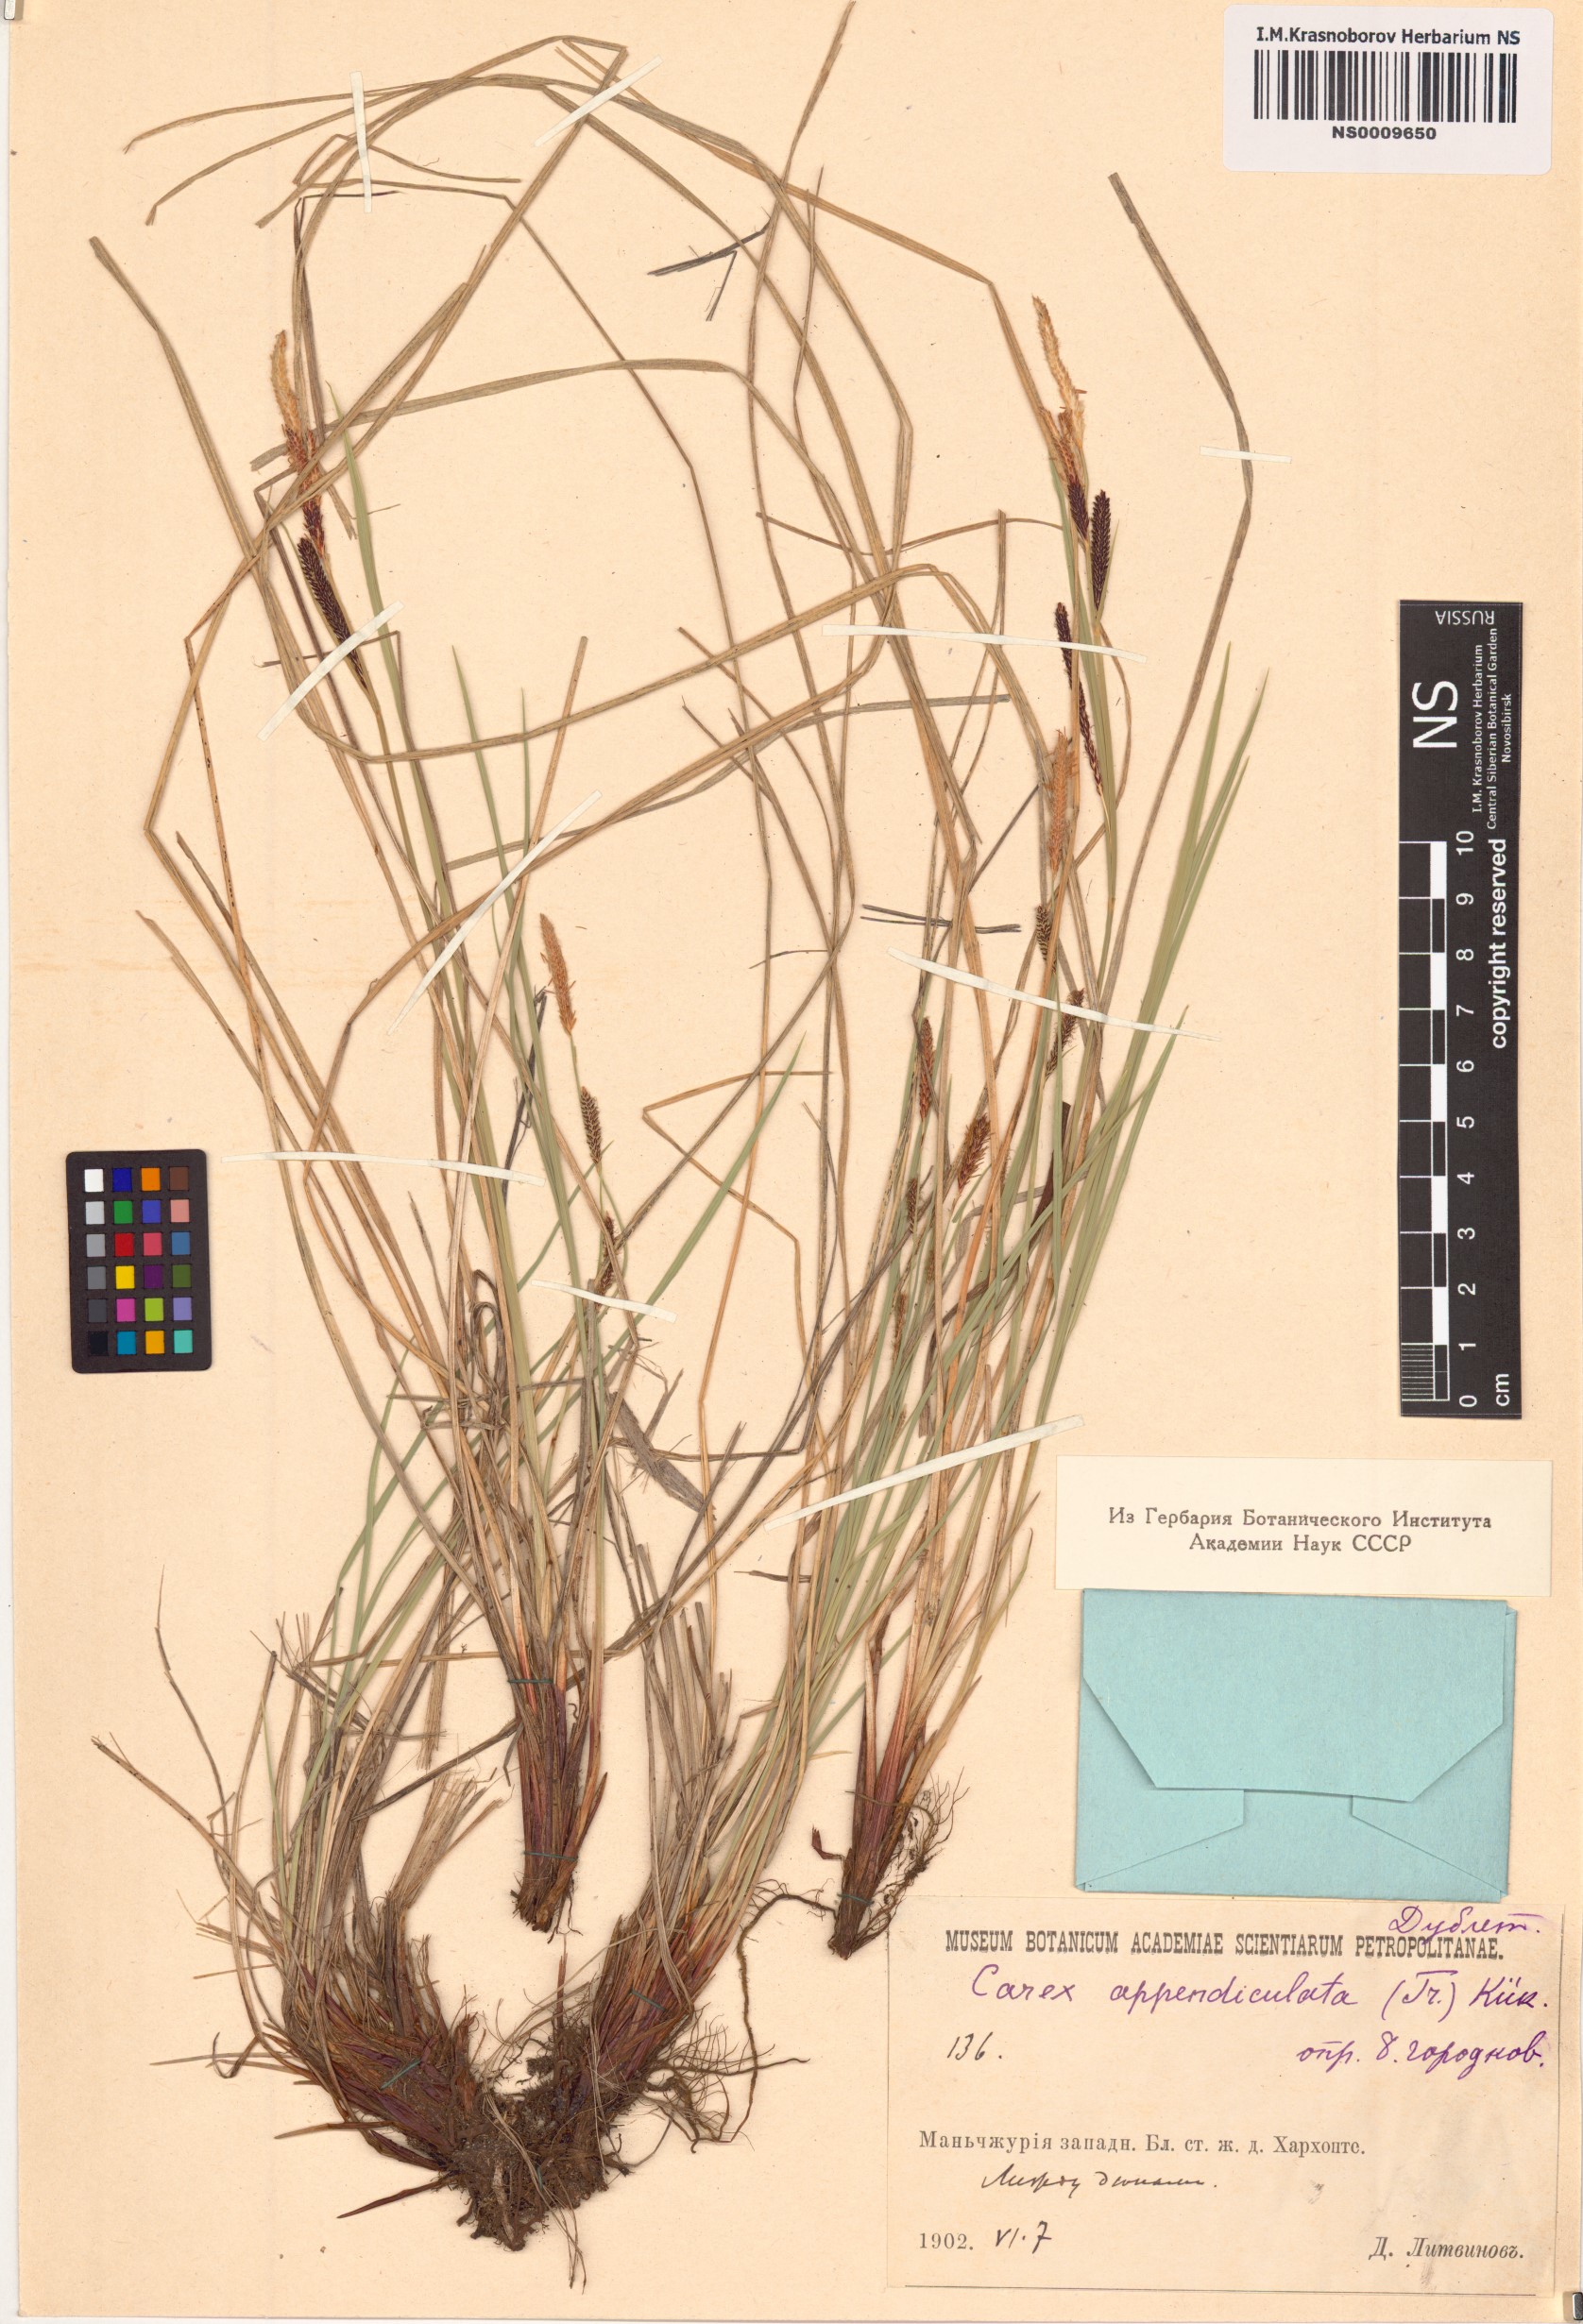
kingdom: Plantae
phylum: Tracheophyta
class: Liliopsida
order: Poales
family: Cyperaceae
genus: Carex
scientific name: Carex appendiculata
